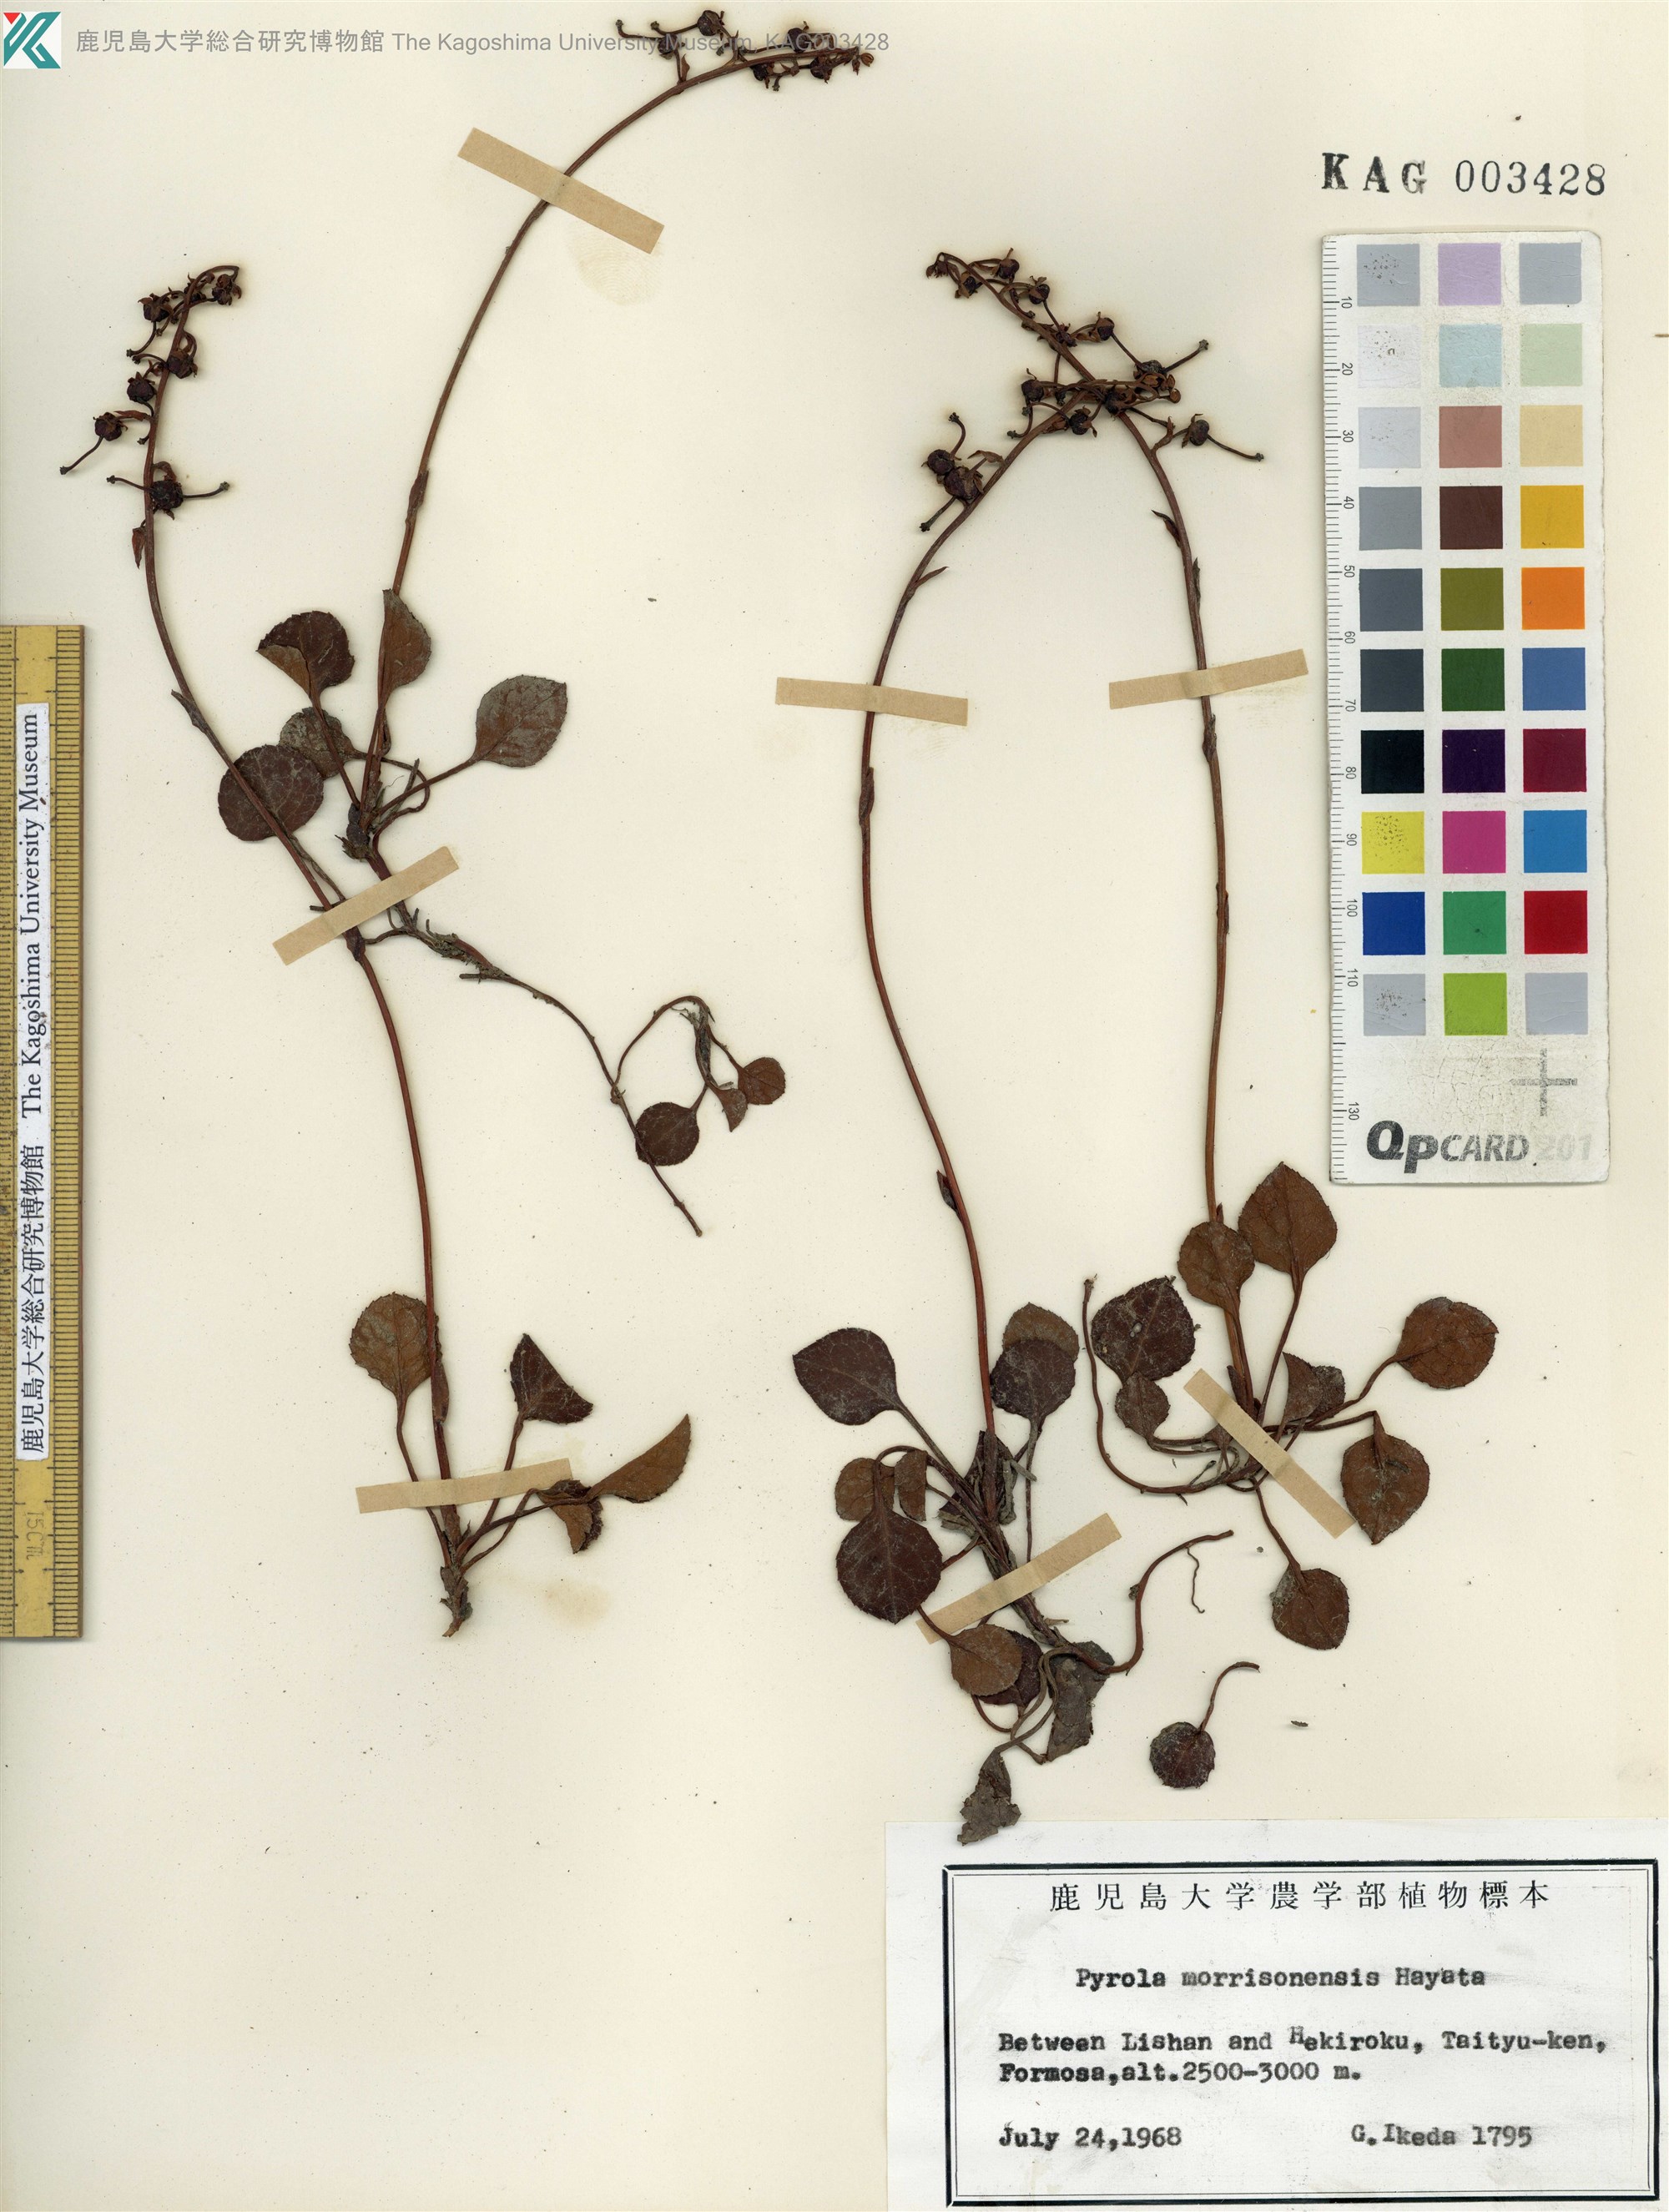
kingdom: Plantae
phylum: Tracheophyta
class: Magnoliopsida
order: Ericales
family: Ericaceae
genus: Pyrola
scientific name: Pyrola morrisonensis
